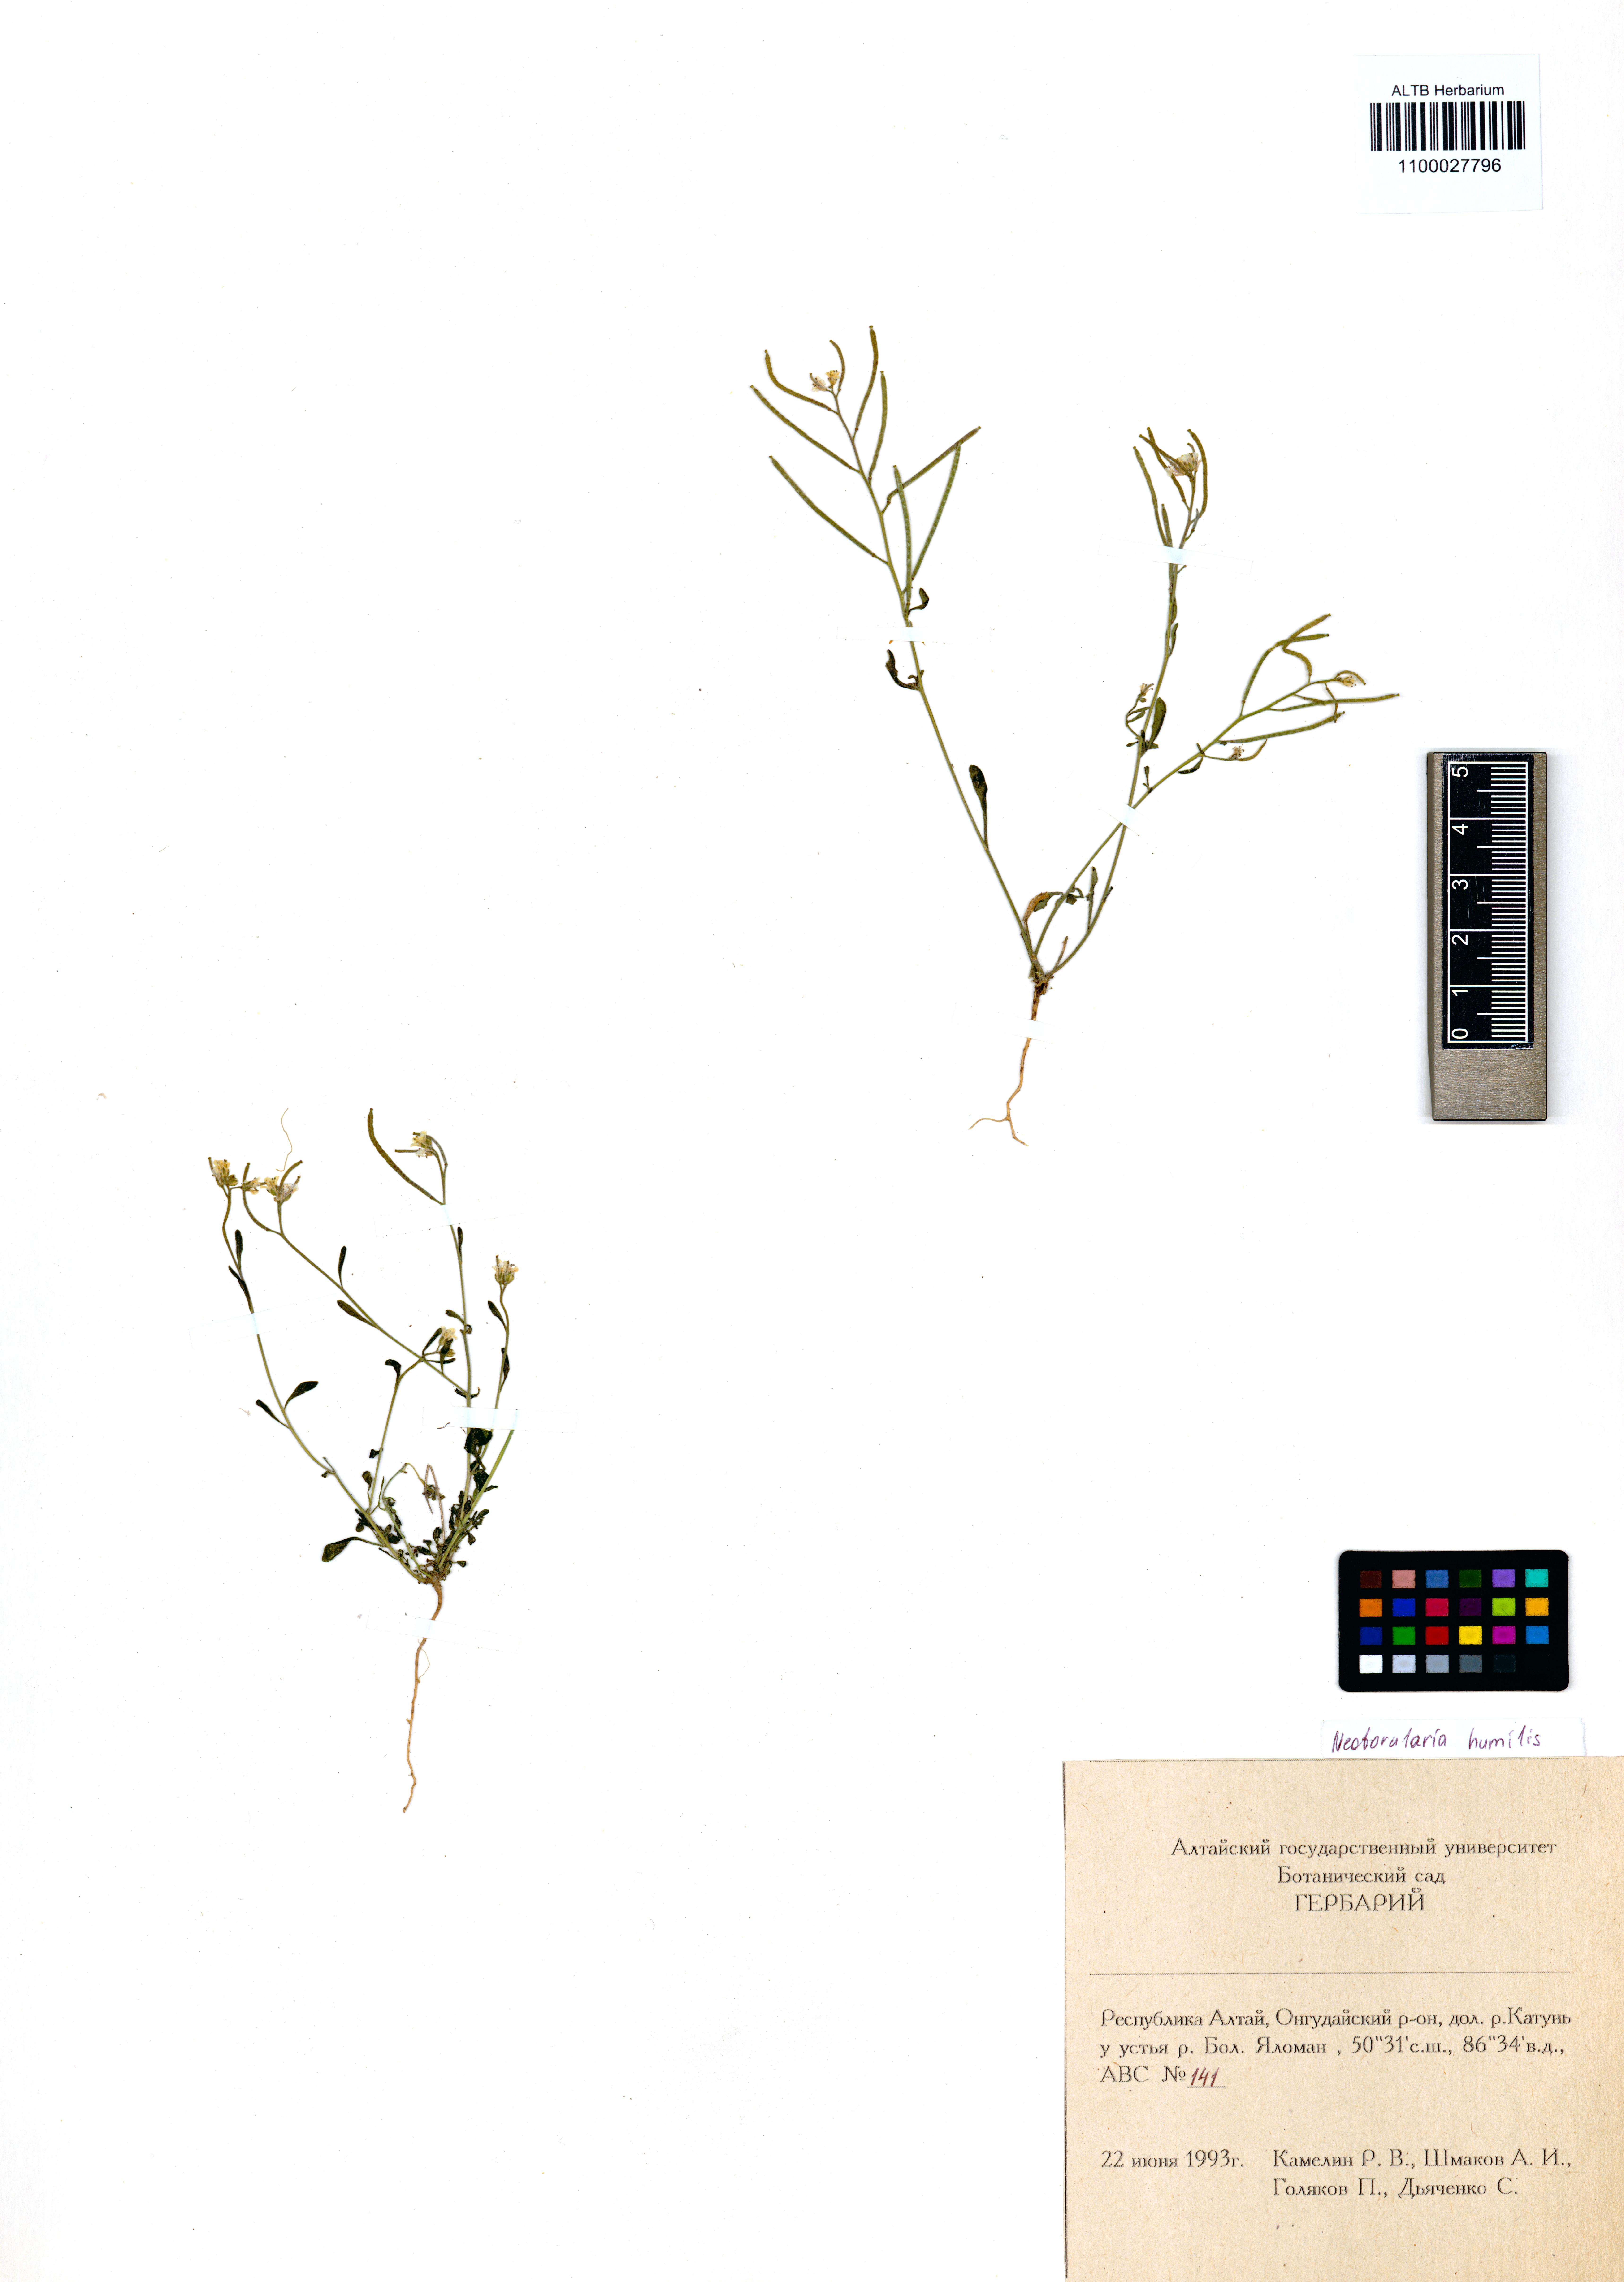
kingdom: Plantae
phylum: Tracheophyta
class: Magnoliopsida
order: Brassicales
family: Brassicaceae
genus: Braya
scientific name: Braya humilis
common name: Alpine northern rockcress
